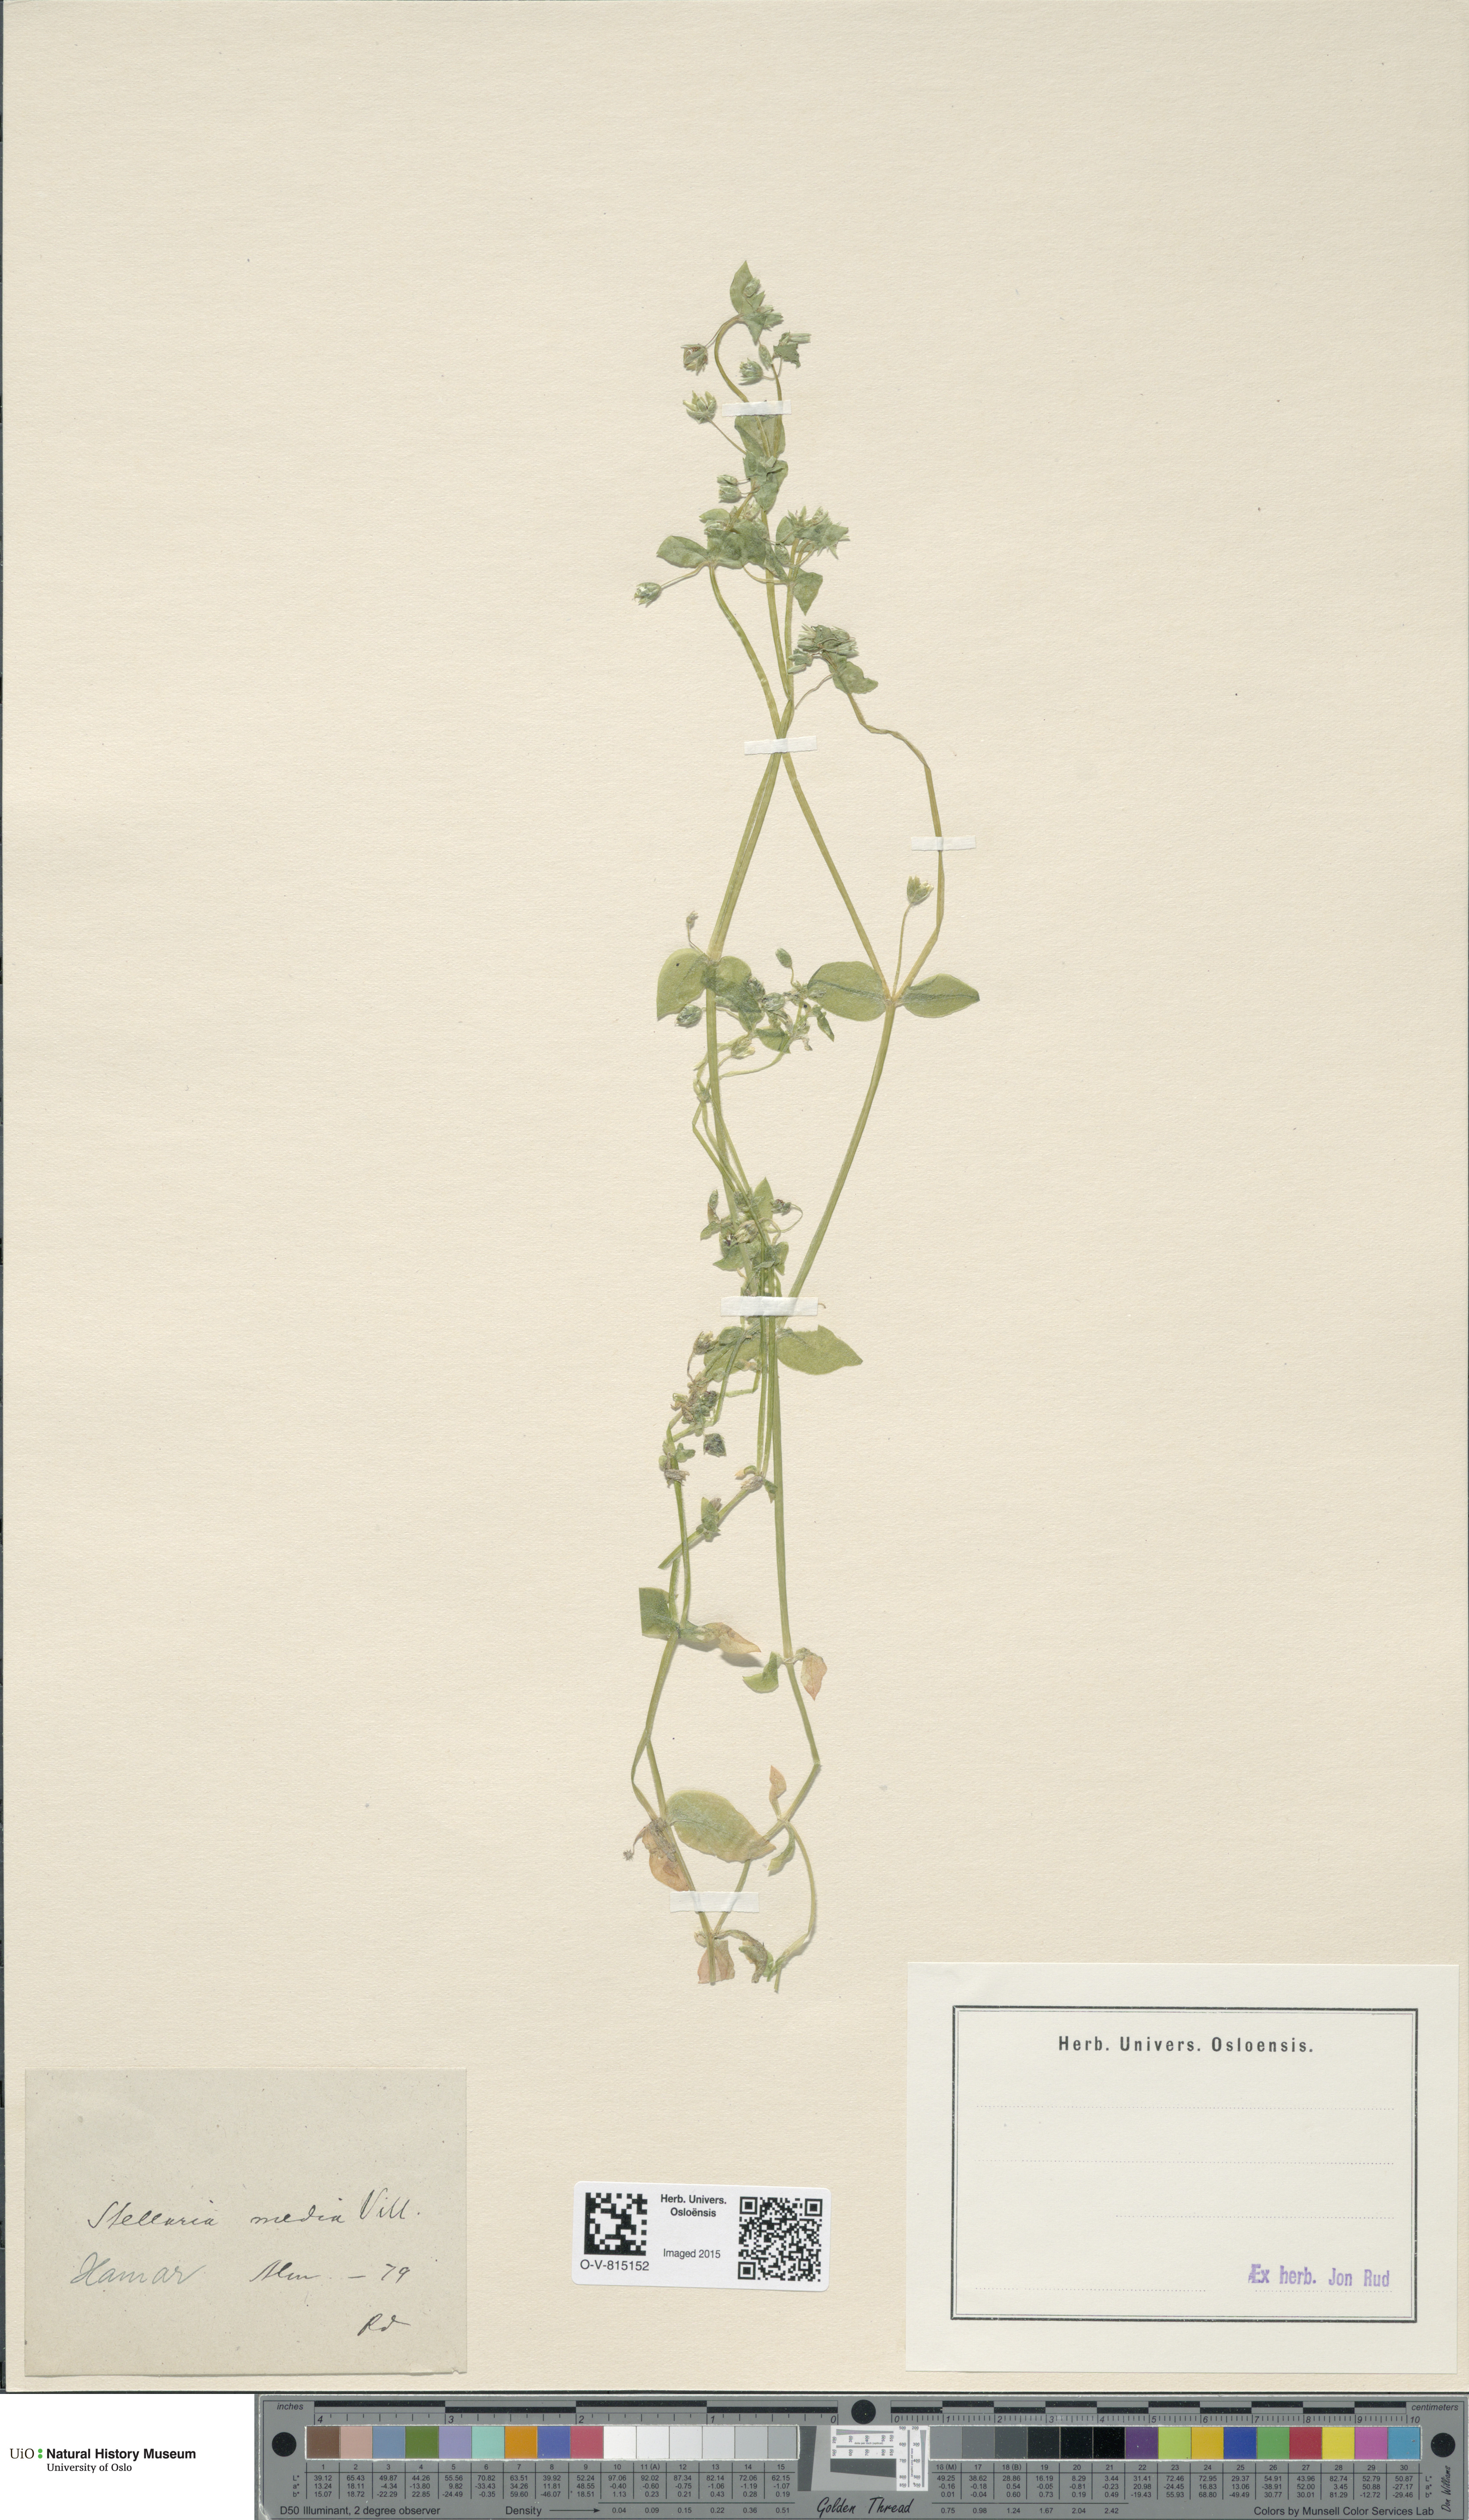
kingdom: Plantae
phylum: Tracheophyta
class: Magnoliopsida
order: Caryophyllales
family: Caryophyllaceae
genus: Stellaria
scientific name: Stellaria media
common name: Common chickweed
